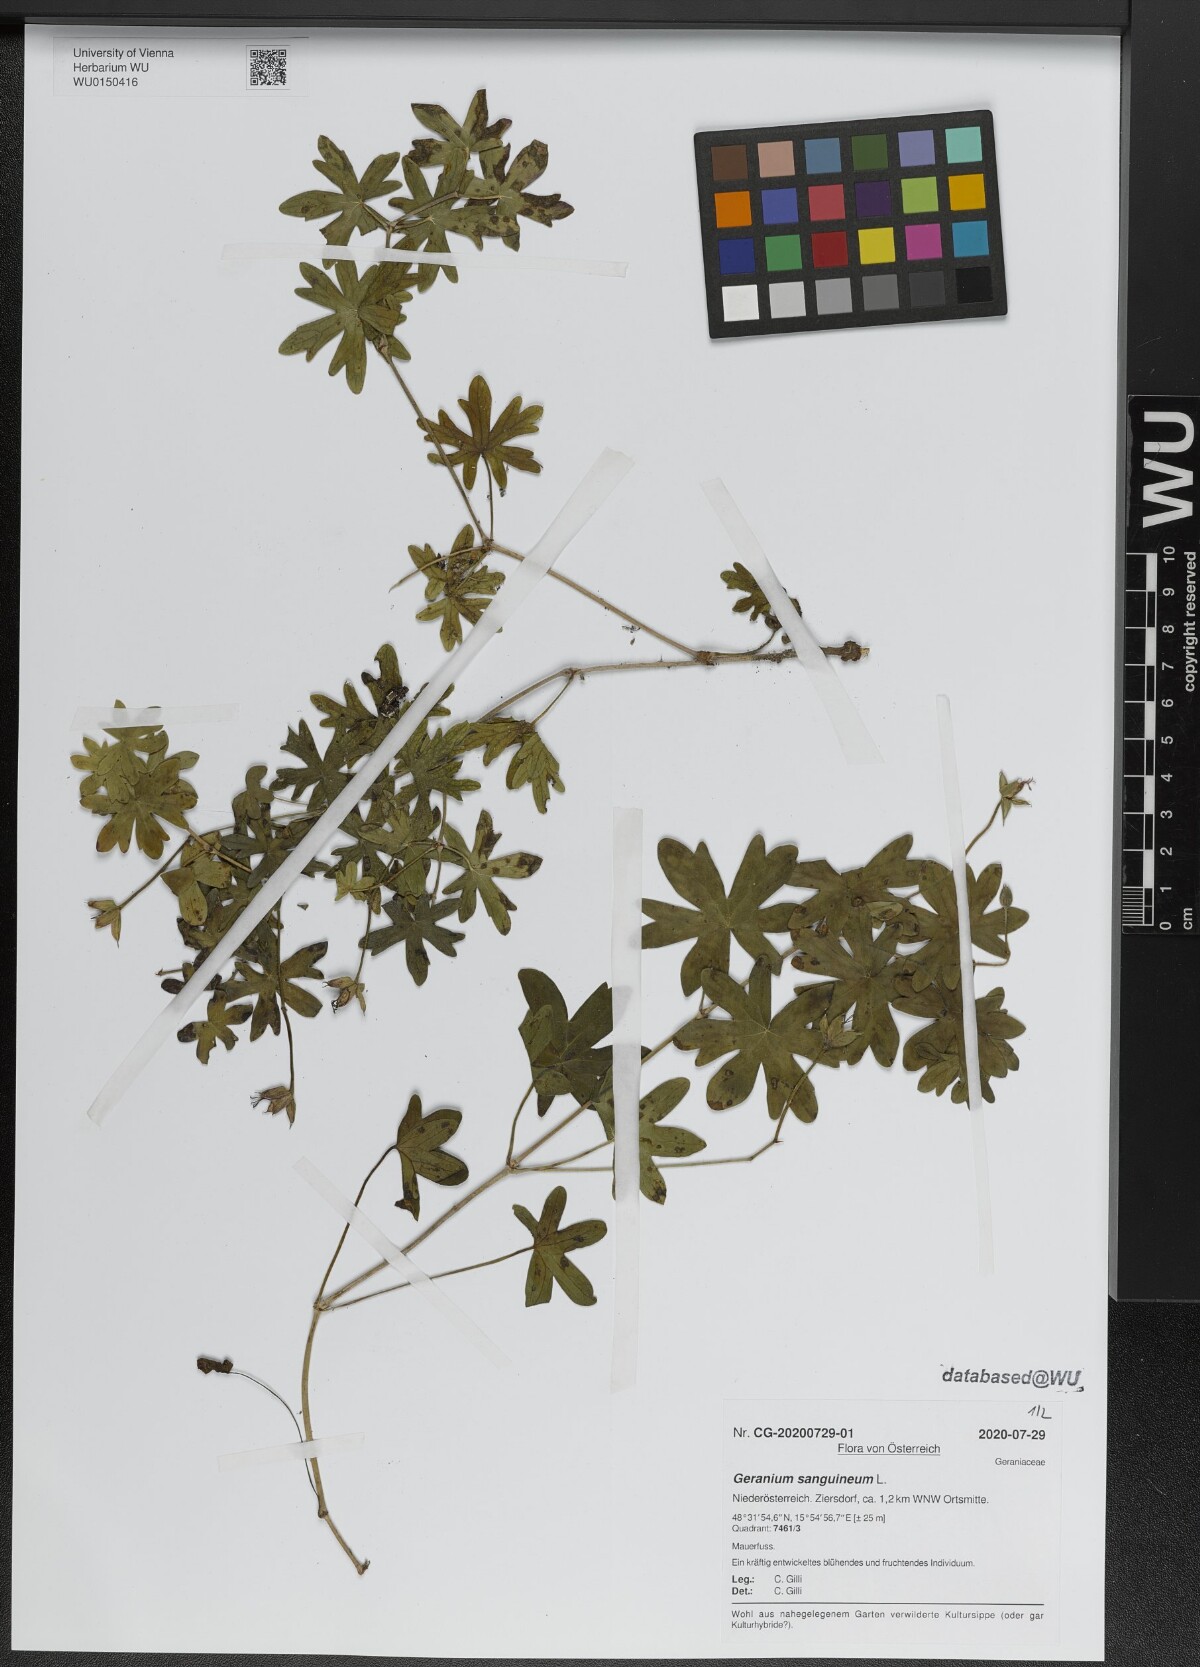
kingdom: Plantae
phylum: Tracheophyta
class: Magnoliopsida
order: Geraniales
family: Geraniaceae
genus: Geranium
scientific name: Geranium sanguineum
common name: Bloody crane's-bill
